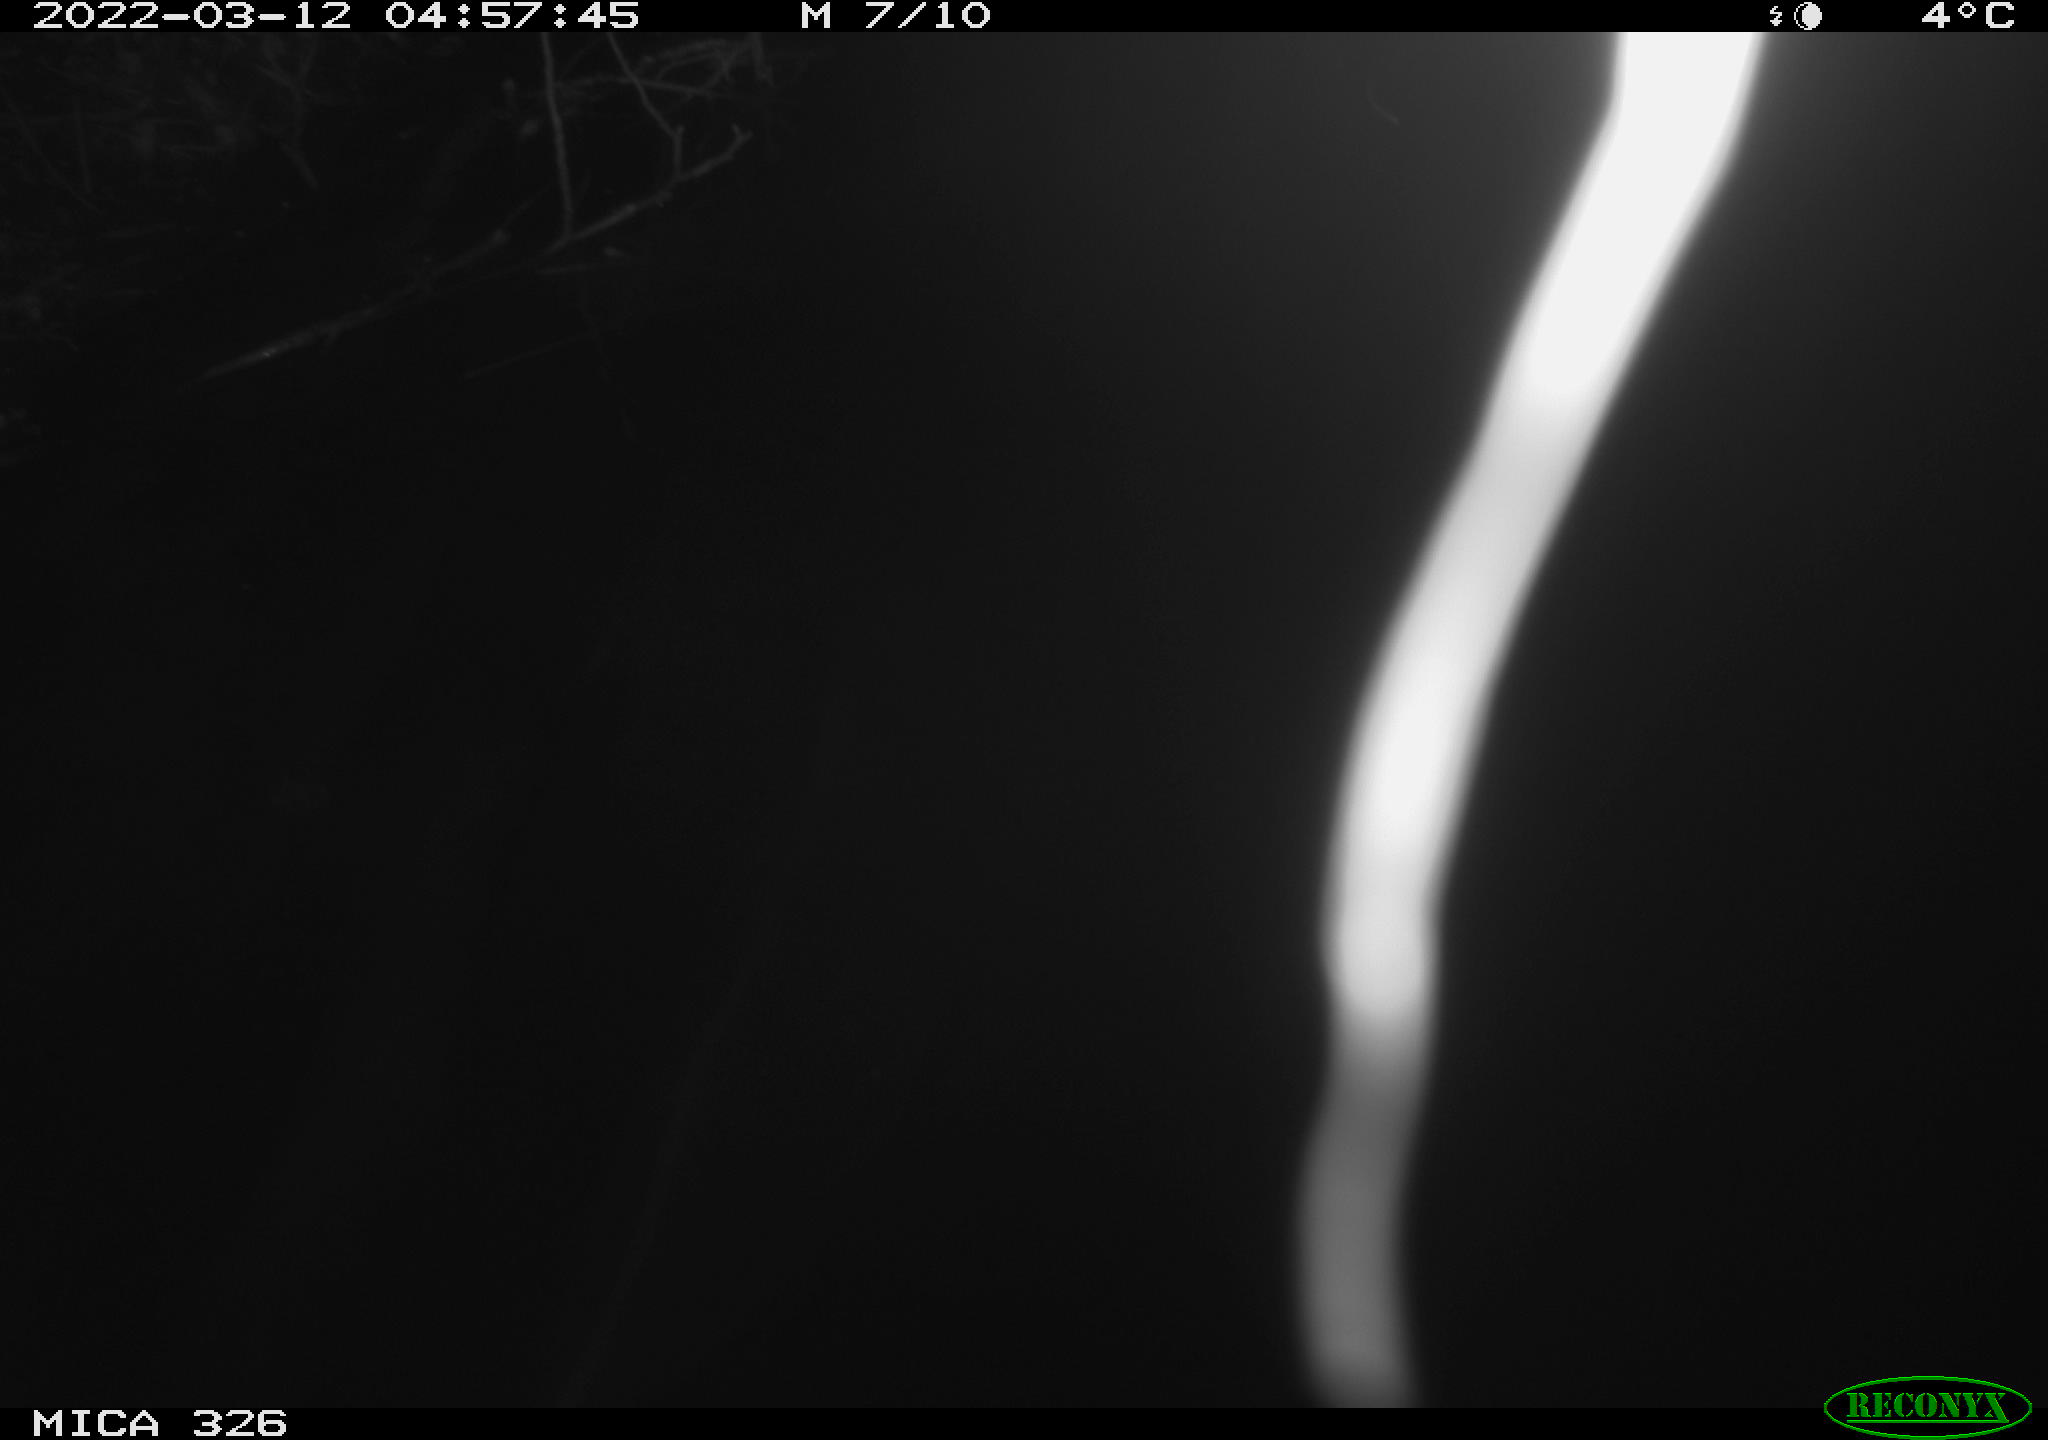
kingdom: Animalia
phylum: Chordata
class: Mammalia
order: Rodentia
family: Cricetidae
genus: Ondatra
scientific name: Ondatra zibethicus
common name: Muskrat
